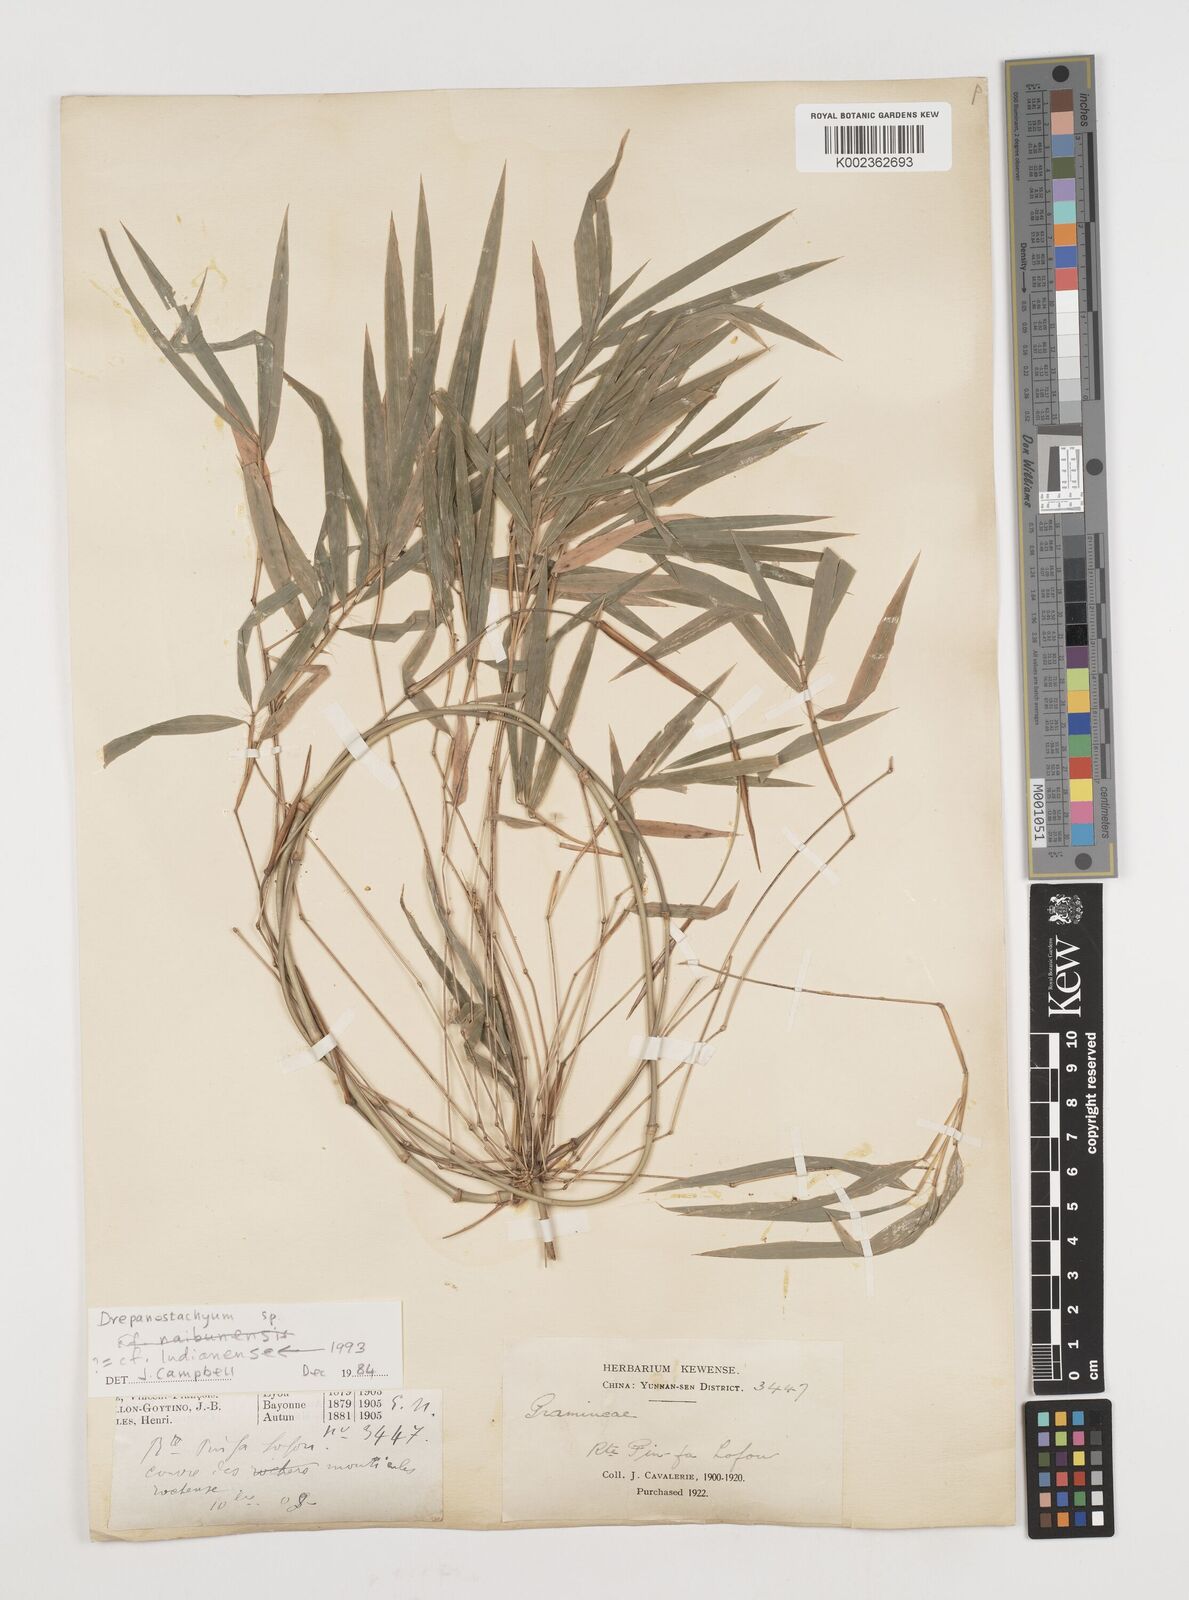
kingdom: Plantae
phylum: Tracheophyta
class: Liliopsida
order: Poales
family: Poaceae
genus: Ampelocalamus
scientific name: Ampelocalamus
